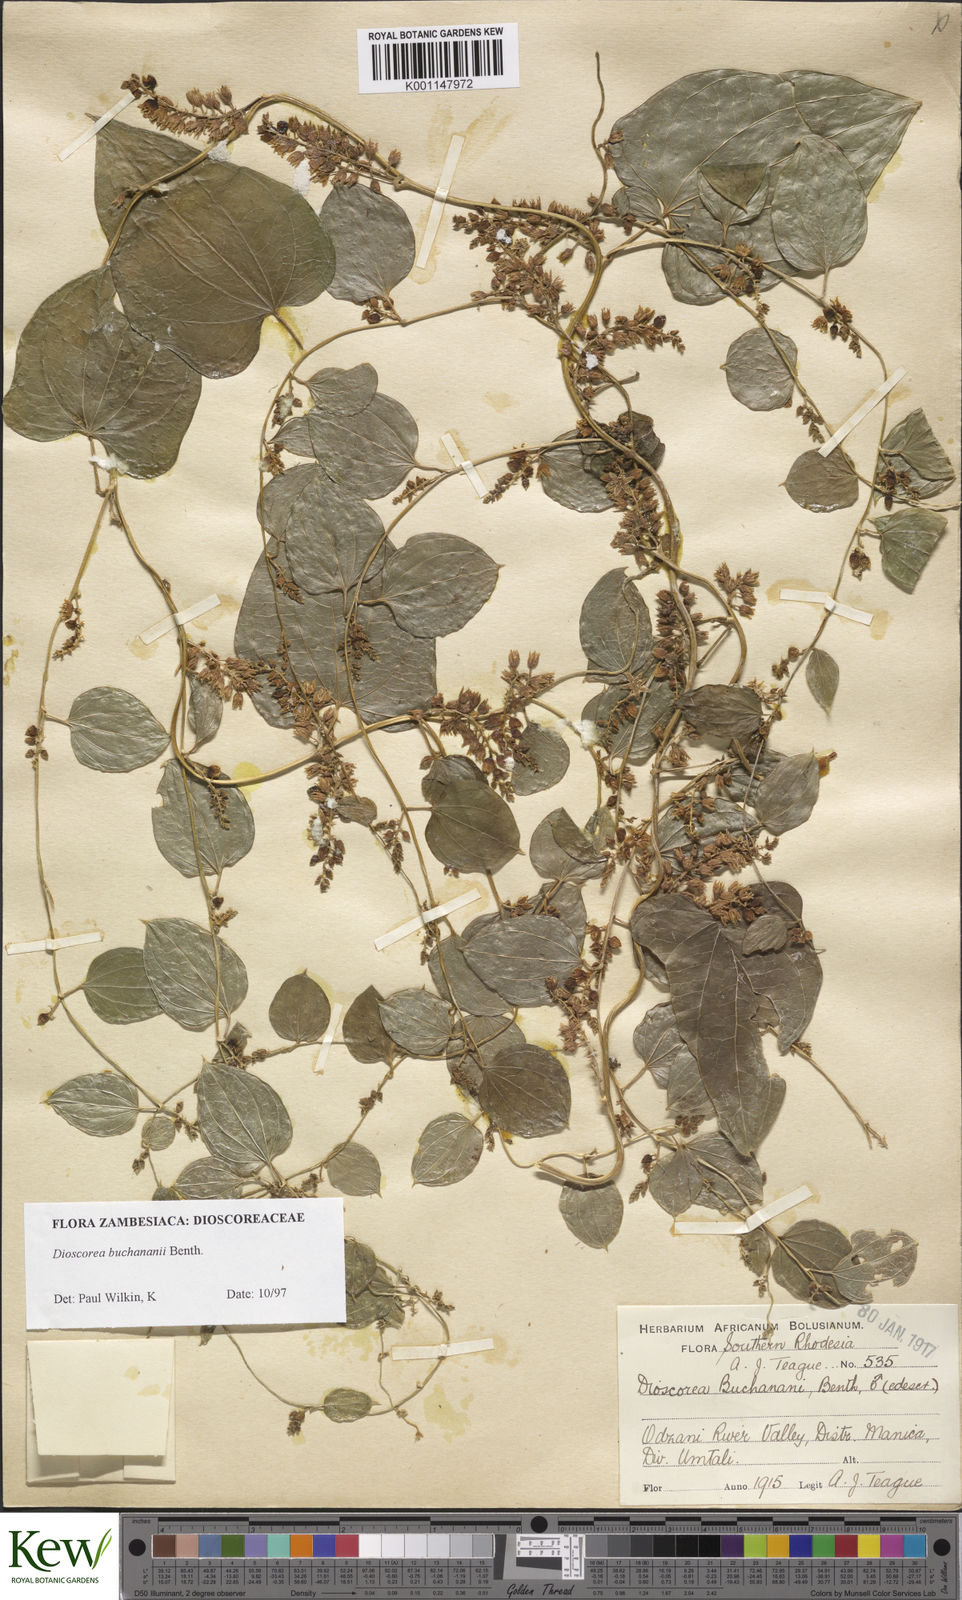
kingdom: Plantae
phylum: Tracheophyta
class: Liliopsida
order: Dioscoreales
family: Dioscoreaceae
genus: Dioscorea
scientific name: Dioscorea buchananii
